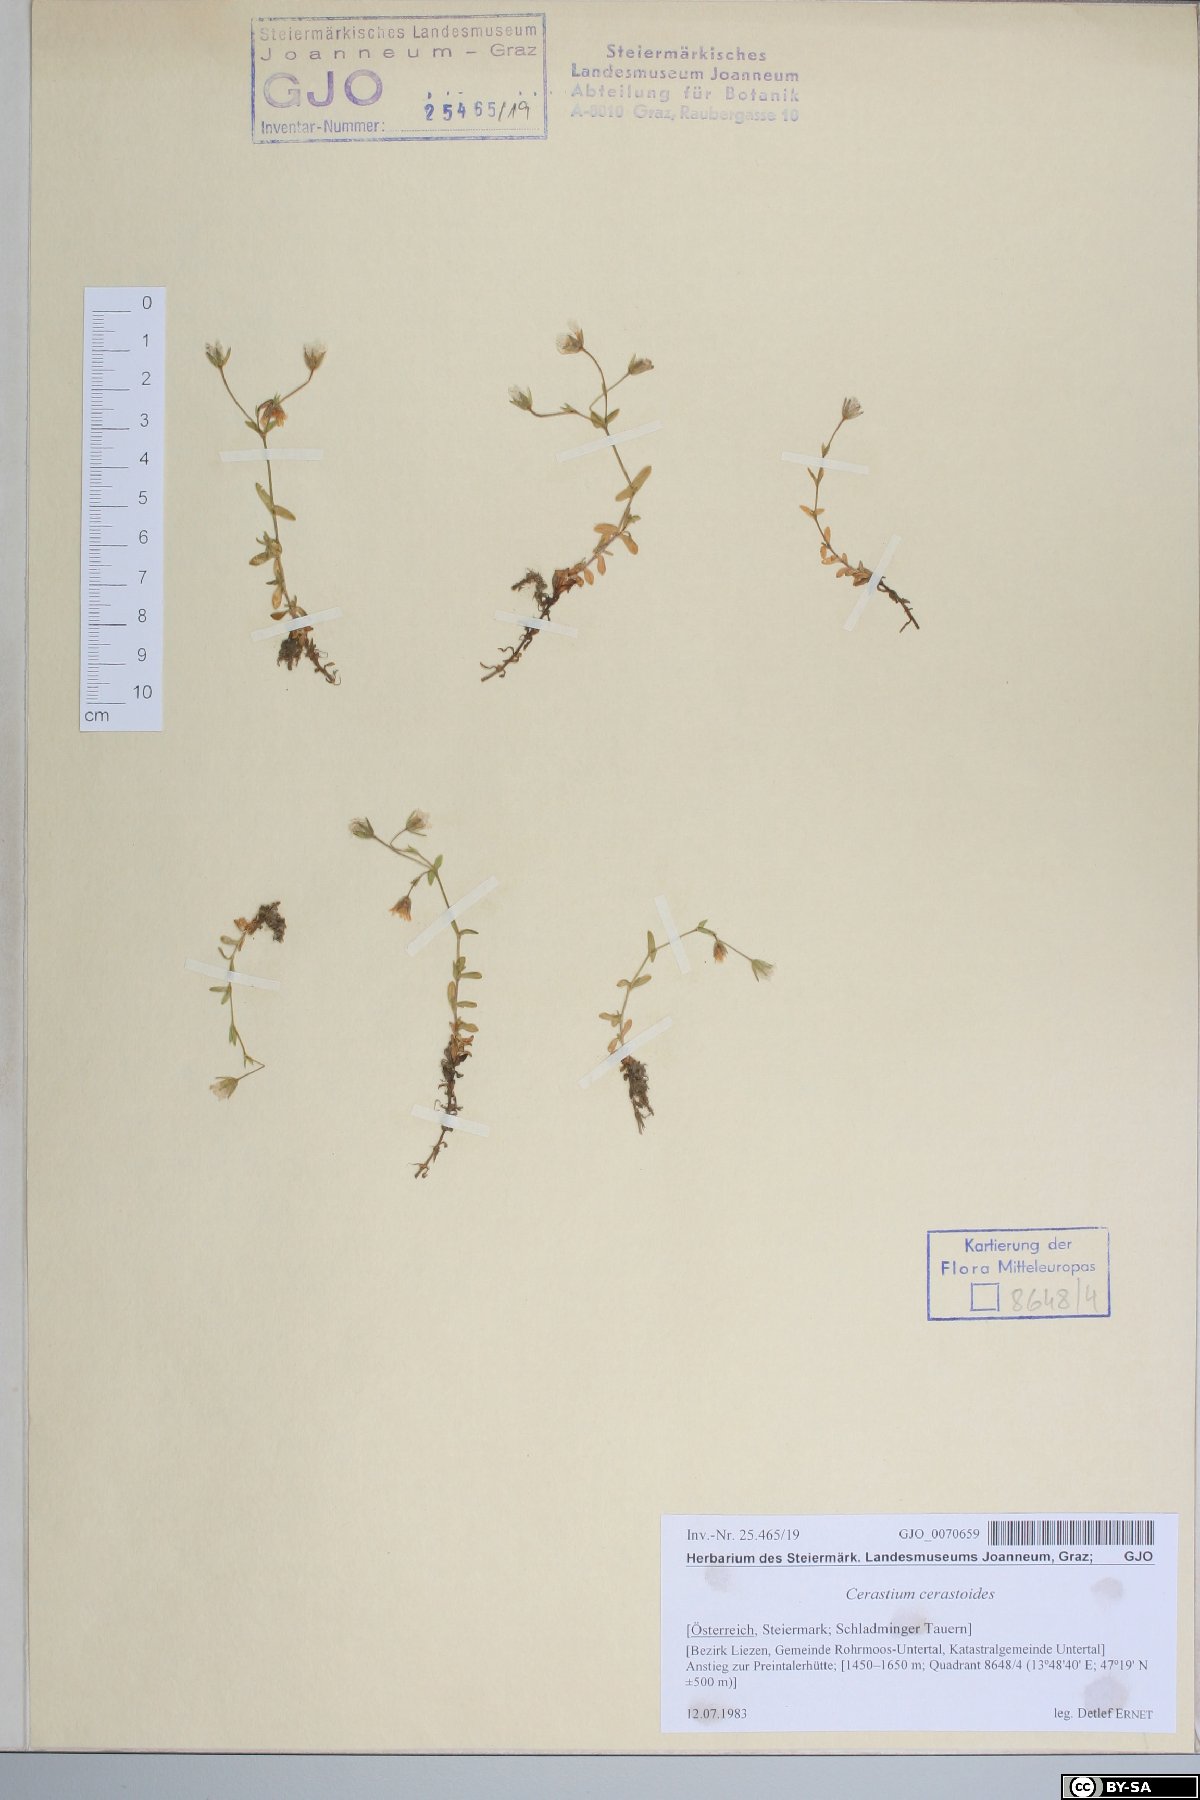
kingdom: Plantae
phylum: Tracheophyta
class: Magnoliopsida
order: Caryophyllales
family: Caryophyllaceae
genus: Dichodon
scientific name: Dichodon cerastoides
